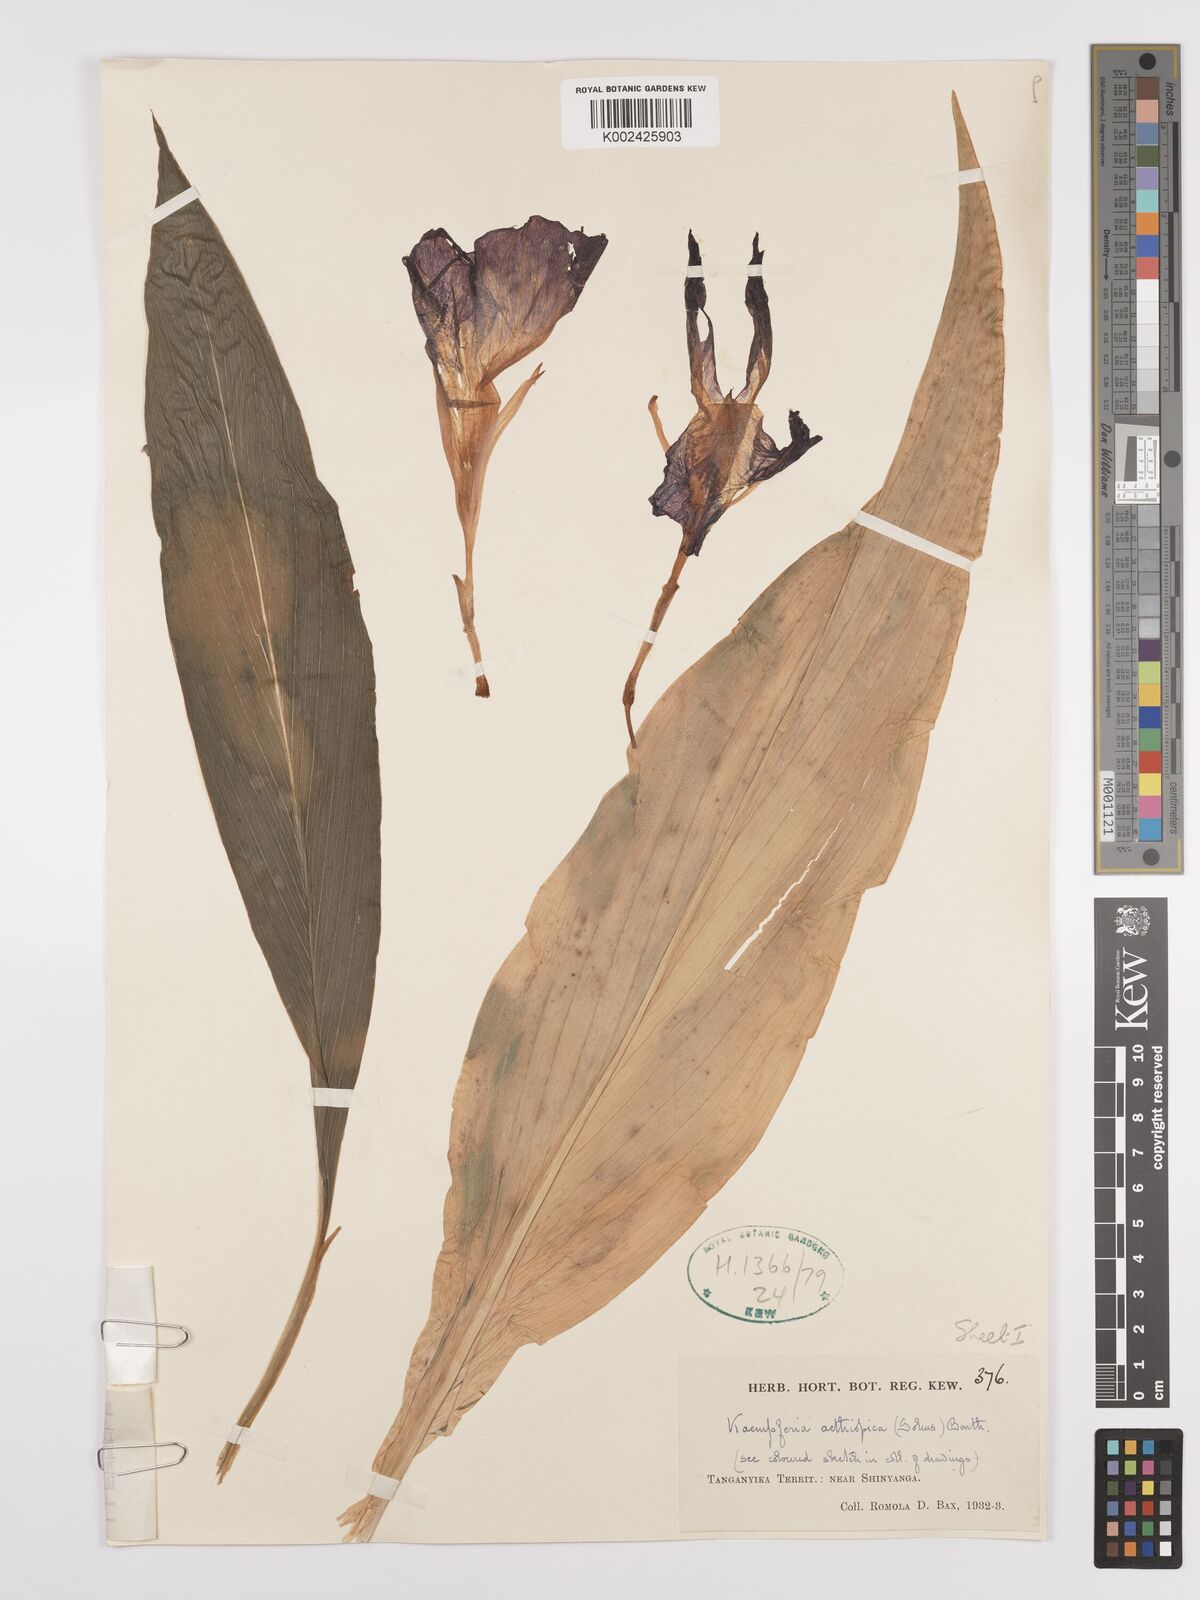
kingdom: Plantae
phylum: Tracheophyta
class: Liliopsida
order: Zingiberales
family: Zingiberaceae
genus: Siphonochilus
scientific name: Siphonochilus aethiopicus
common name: African-ginger
